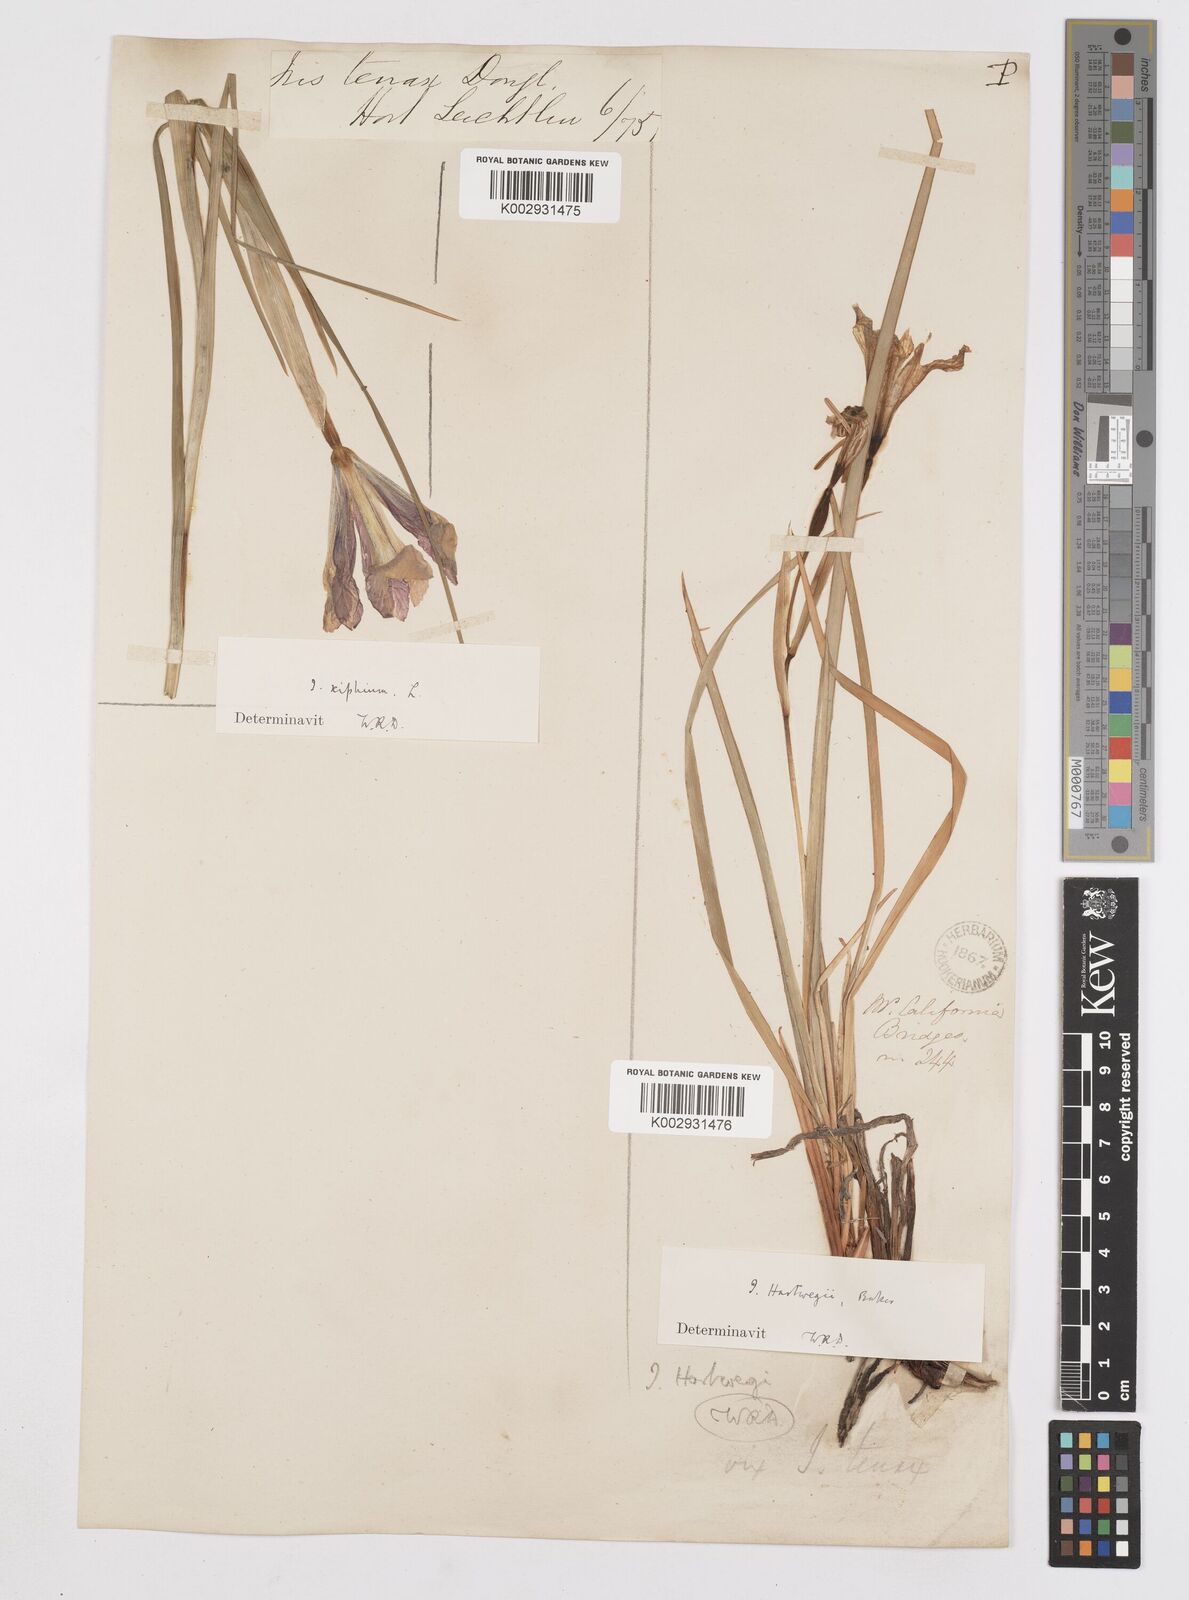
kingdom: Plantae
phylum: Tracheophyta
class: Liliopsida
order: Asparagales
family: Iridaceae
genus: Iris
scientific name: Iris hartwegii
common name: Sierra iris
